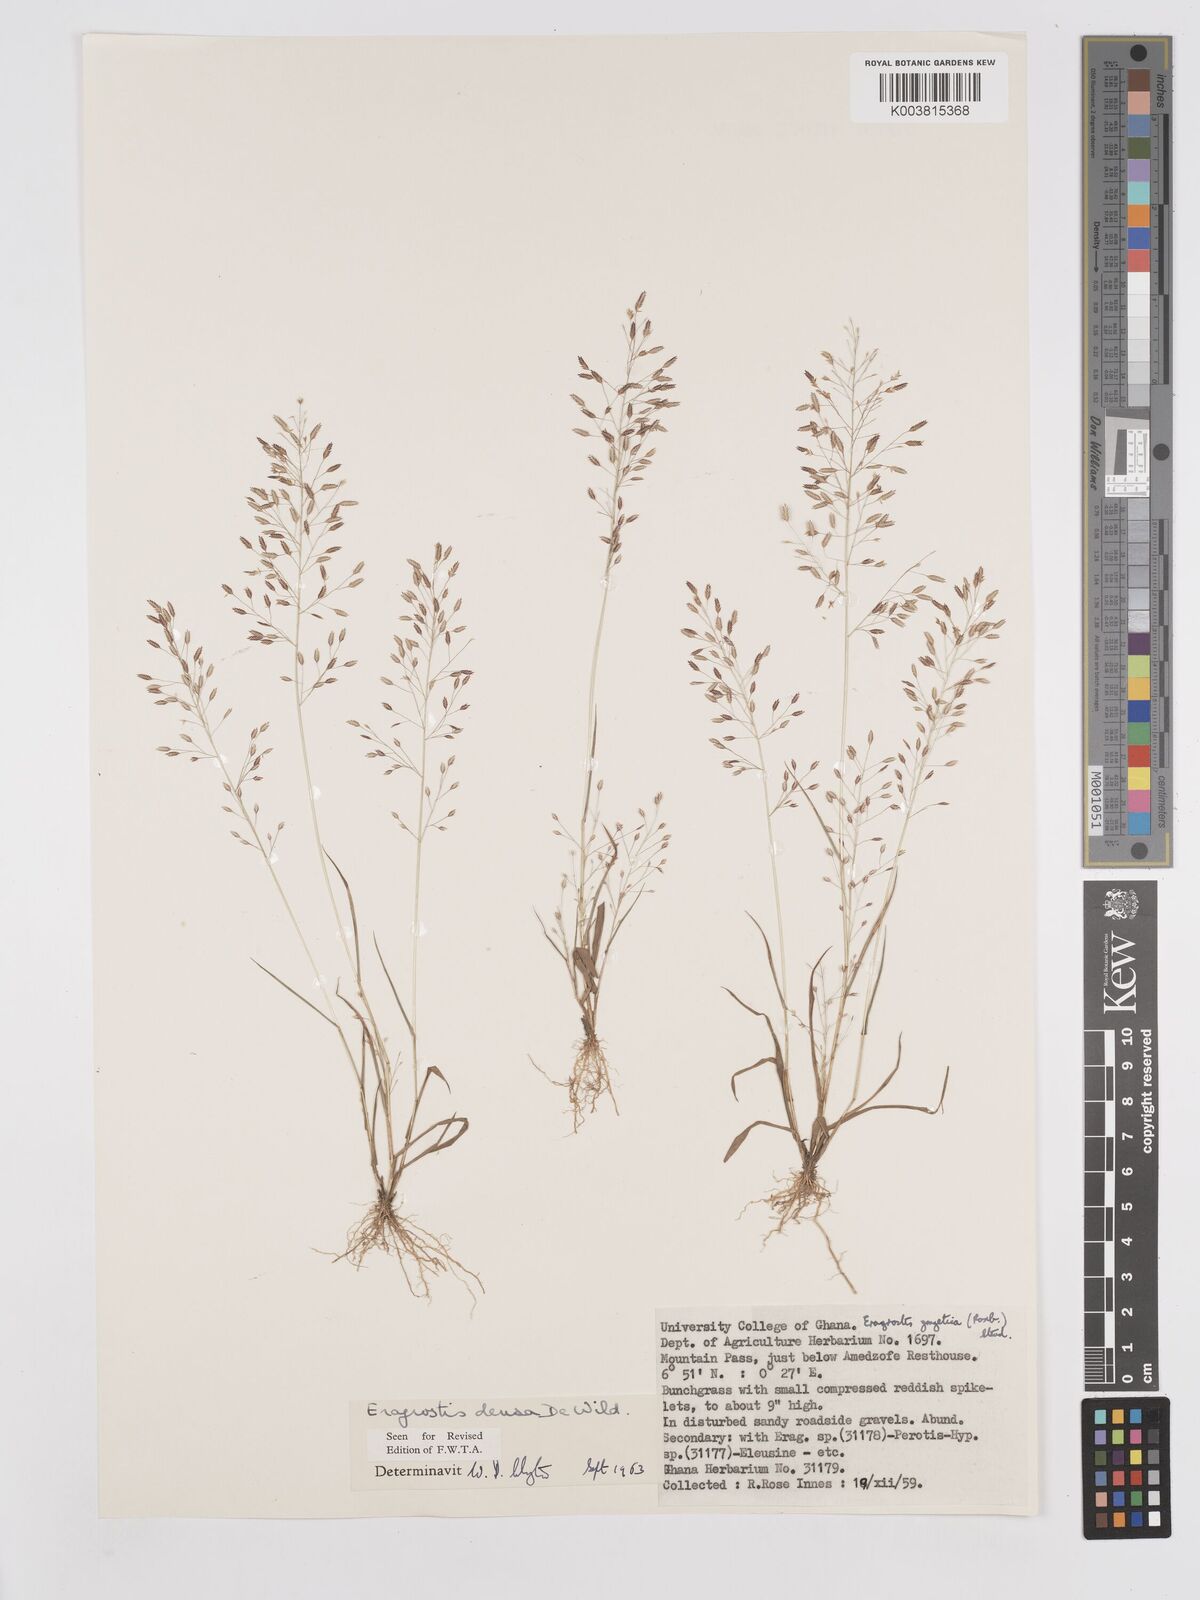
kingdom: Plantae
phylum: Tracheophyta
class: Liliopsida
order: Poales
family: Poaceae
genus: Eragrostis
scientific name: Eragrostis welwitschii
